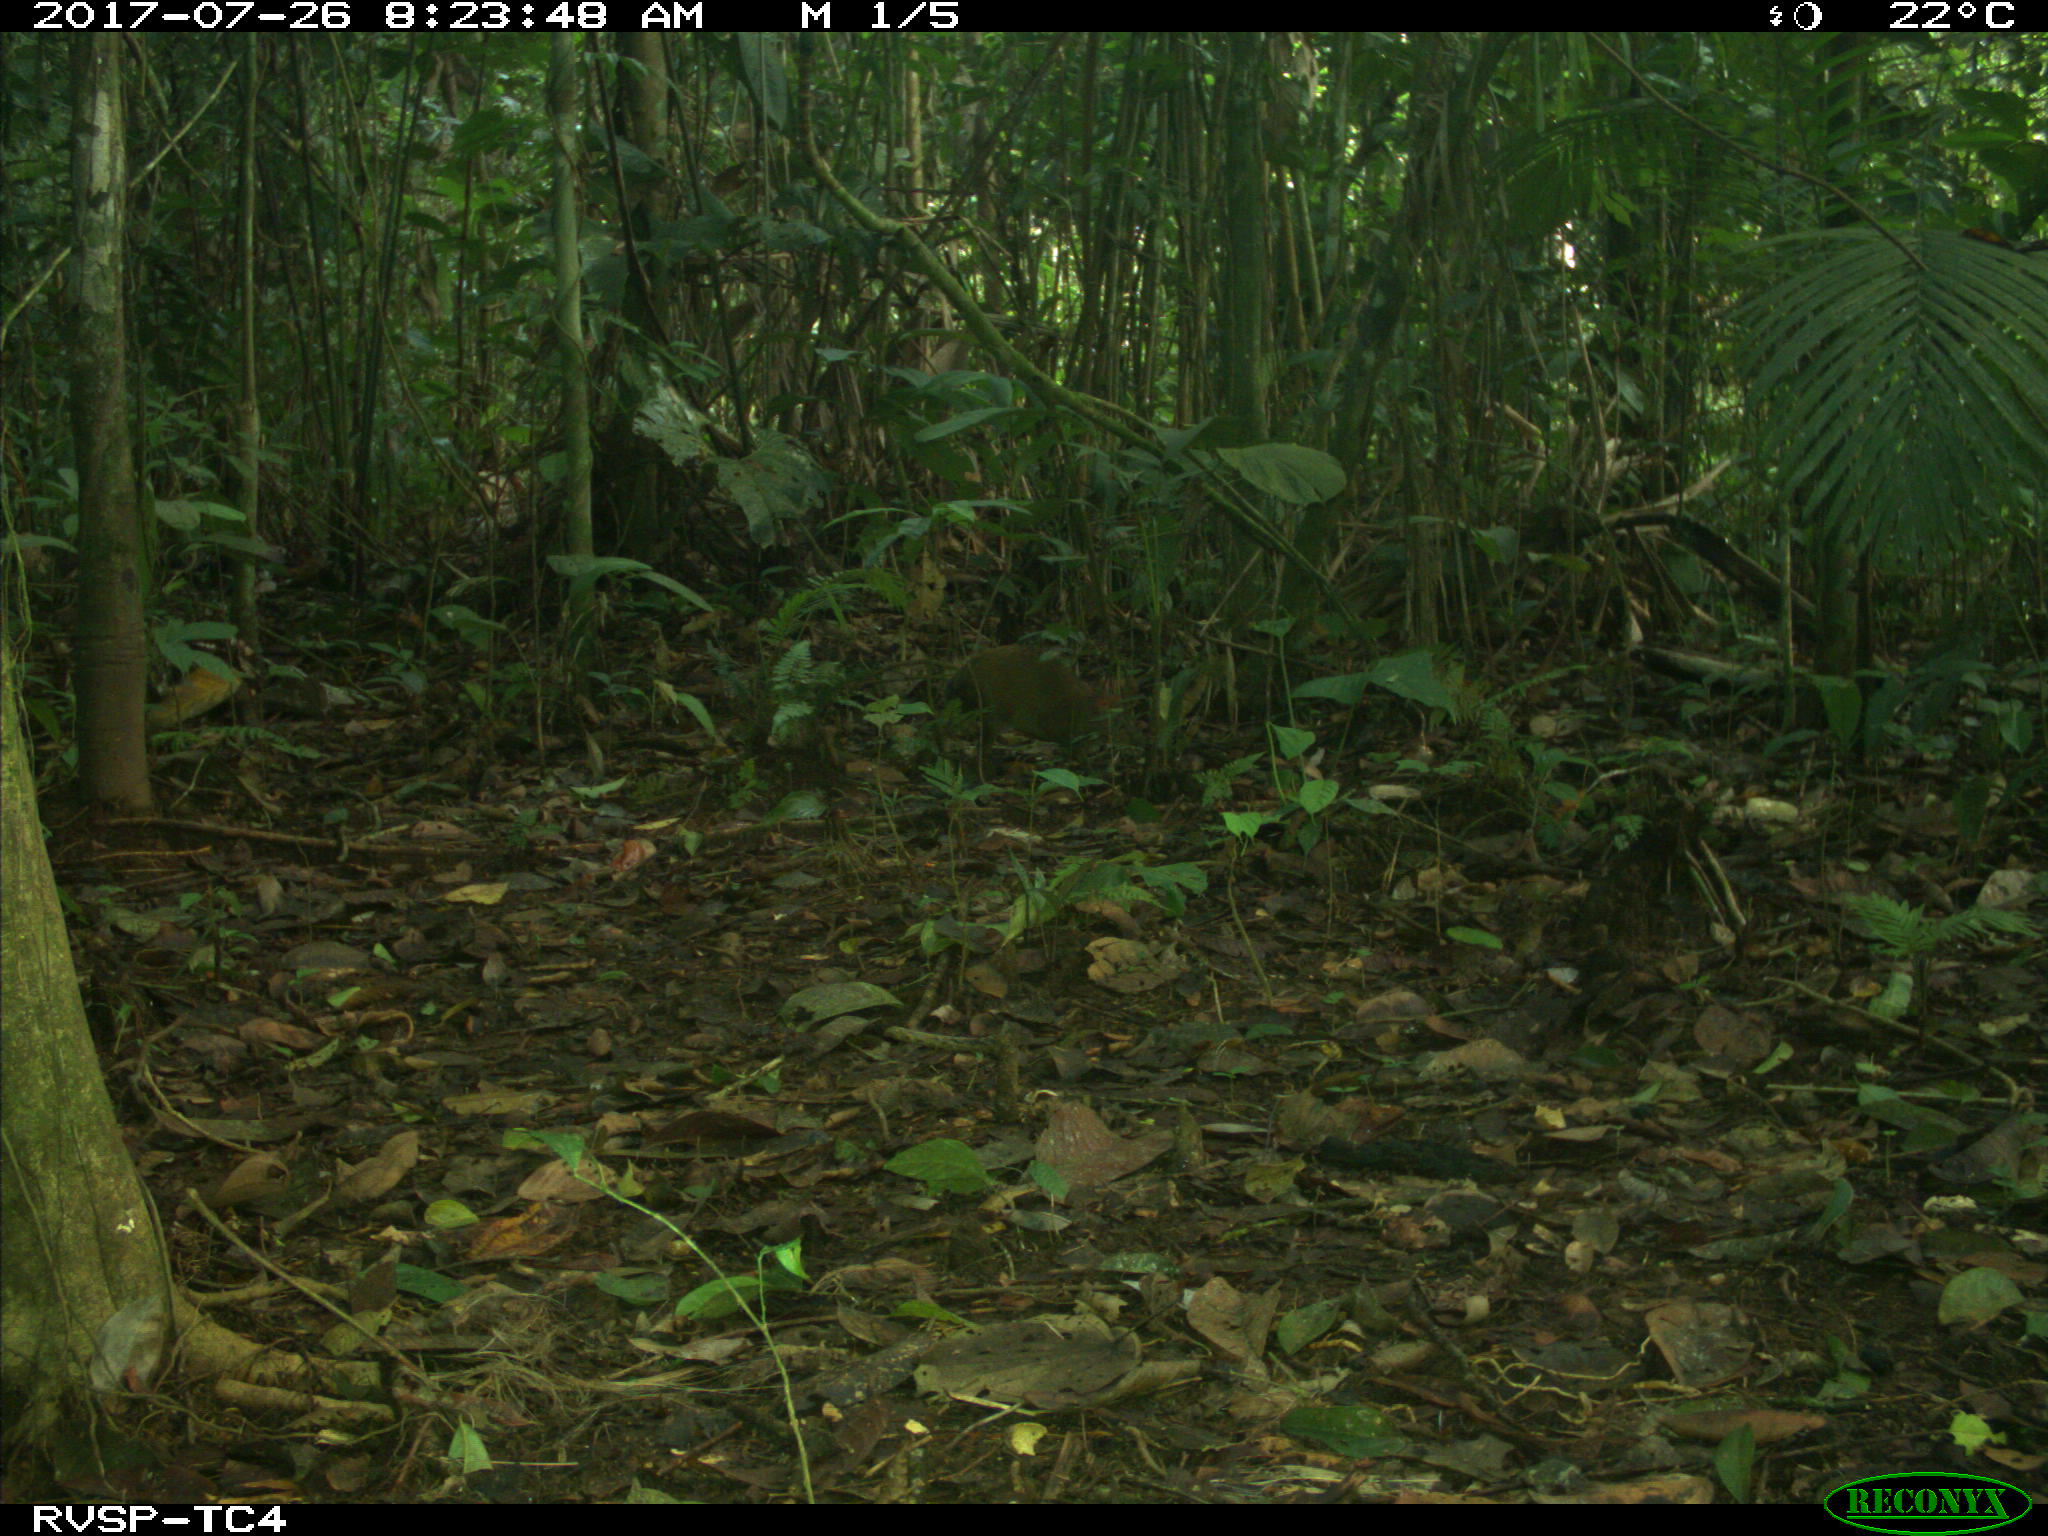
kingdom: Animalia
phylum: Chordata
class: Mammalia
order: Rodentia
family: Dasyproctidae
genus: Dasyprocta
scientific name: Dasyprocta punctata
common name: Central american agouti
